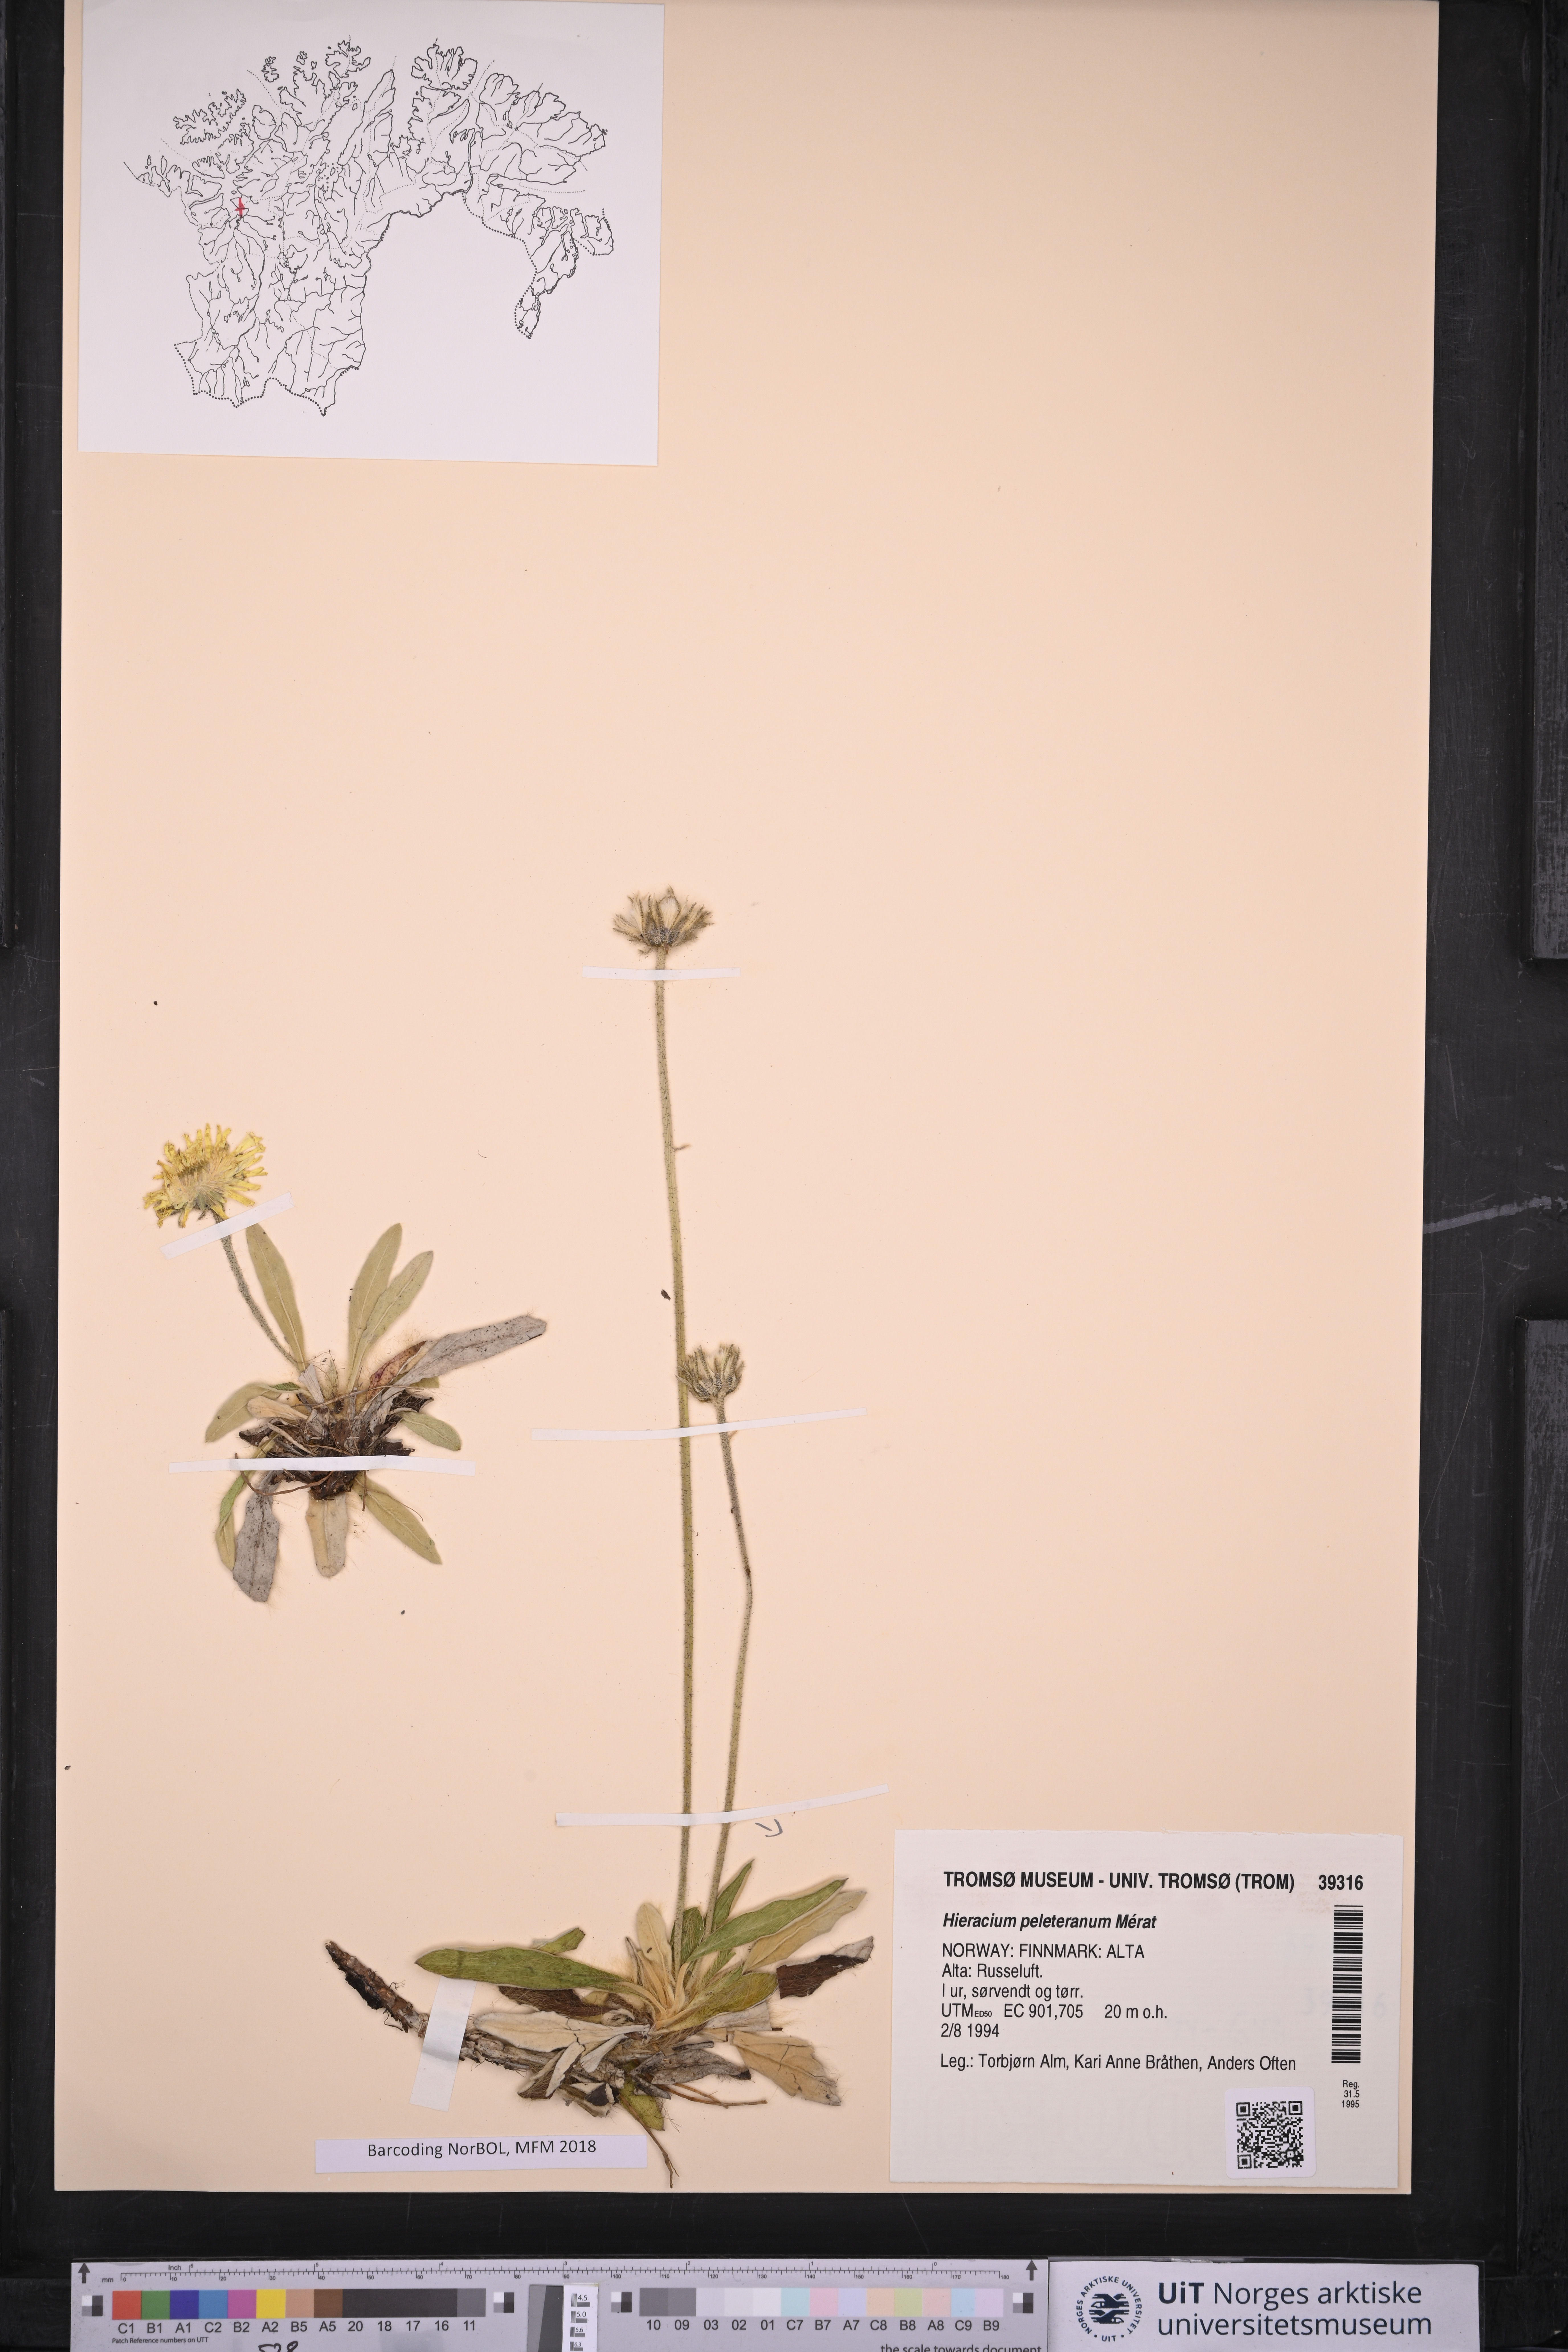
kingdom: Plantae
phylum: Tracheophyta
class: Magnoliopsida
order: Asterales
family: Asteraceae
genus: Pilosella
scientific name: Pilosella peleteriana
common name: Shaggy mouse-ear-hawkweed
